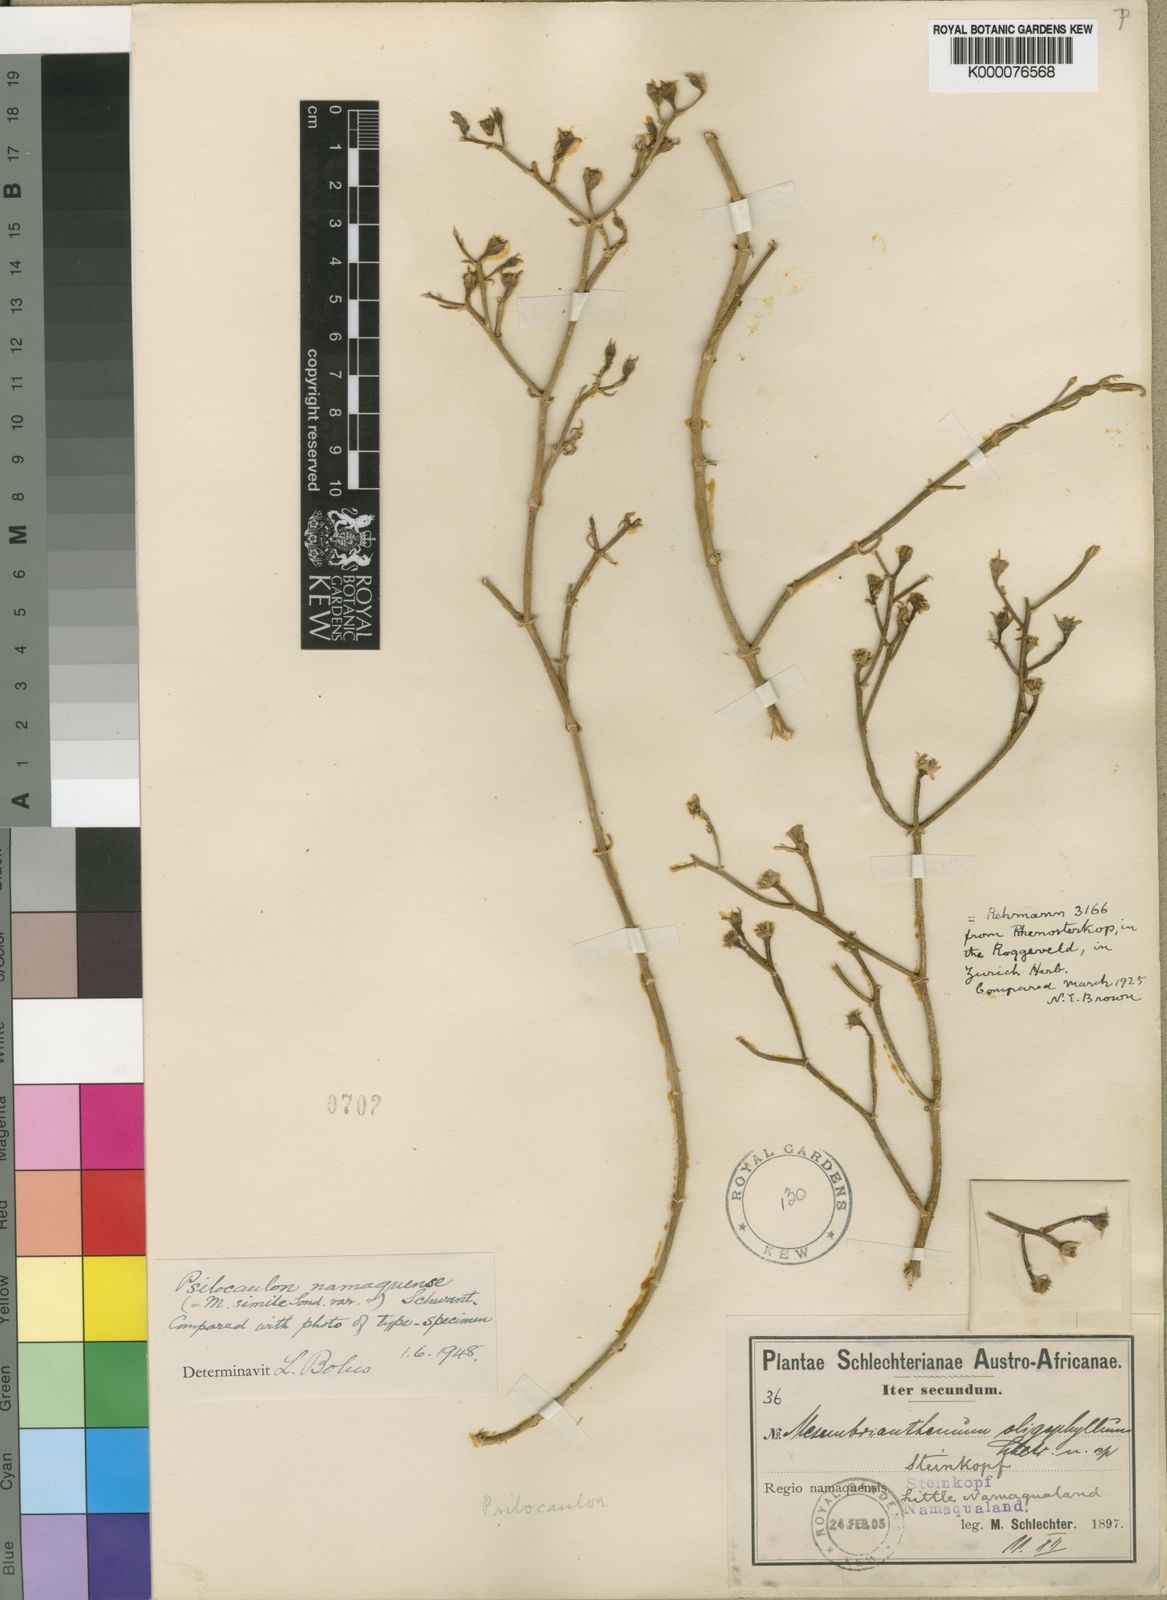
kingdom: Plantae
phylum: Tracheophyta
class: Magnoliopsida
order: Caryophyllales
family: Aizoaceae
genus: Mesembryanthemum
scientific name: Mesembryanthemum junceum
